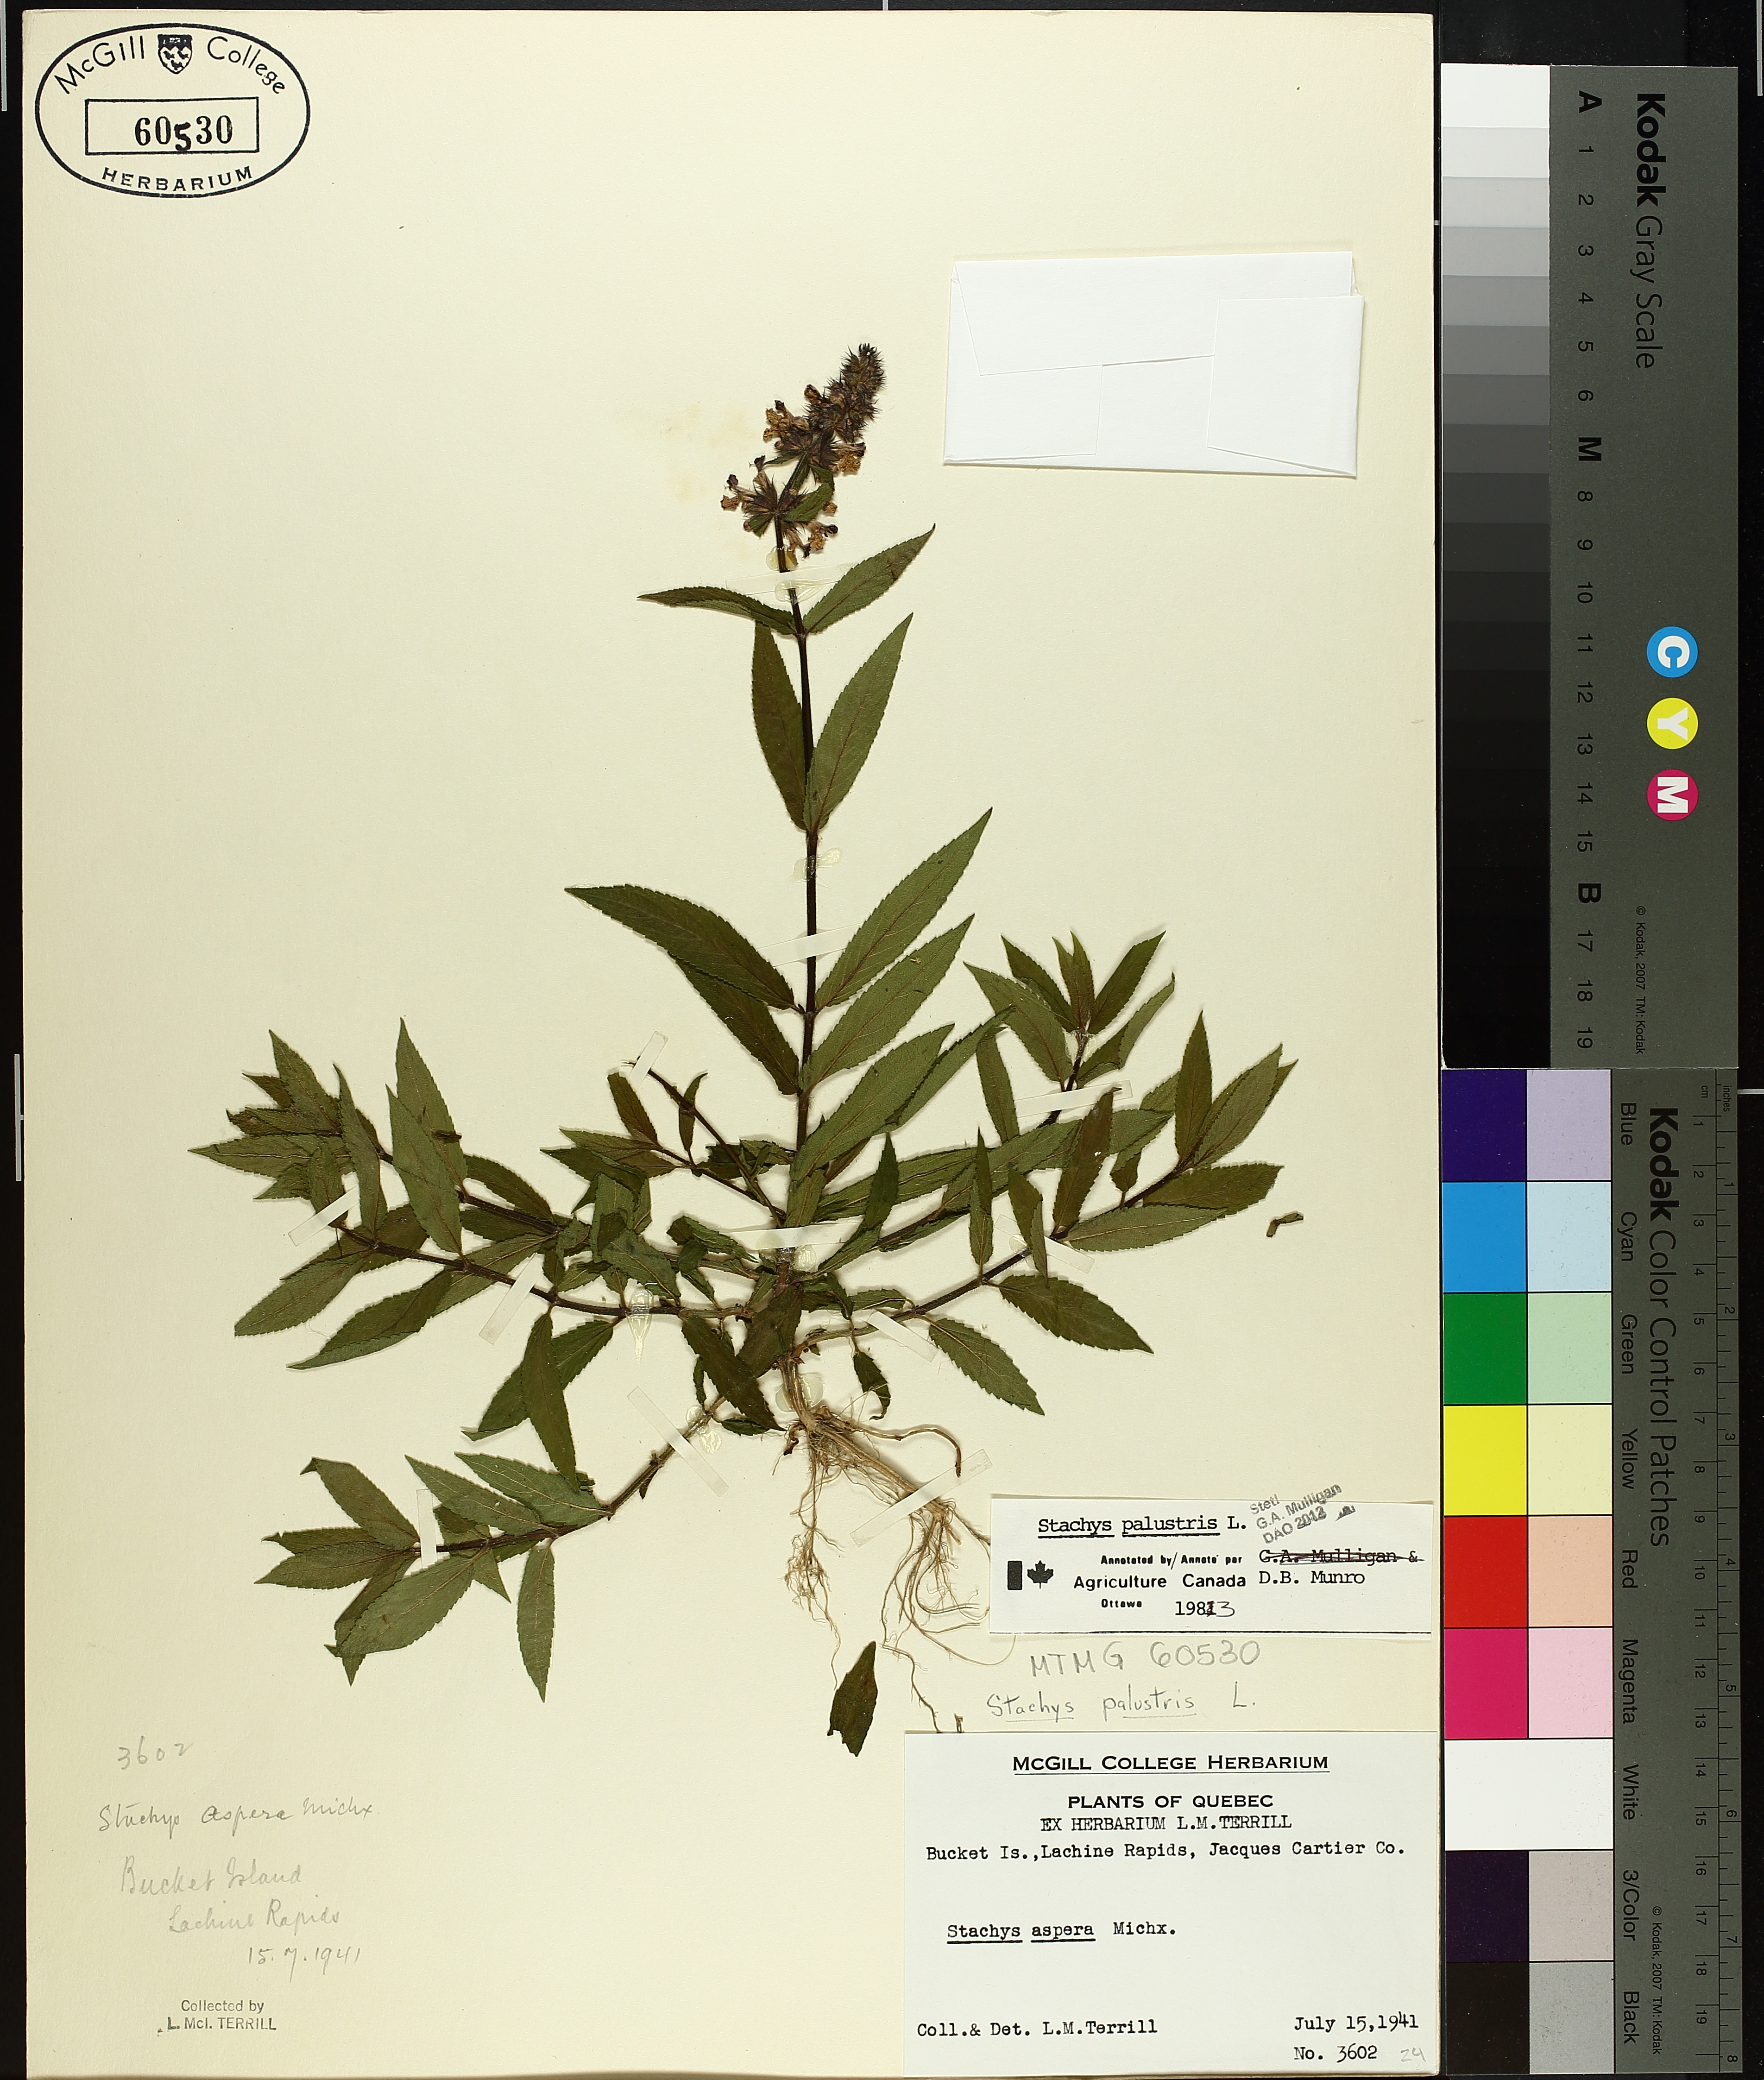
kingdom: Plantae
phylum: Tracheophyta
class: Magnoliopsida
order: Lamiales
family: Lamiaceae
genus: Stachys
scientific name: Stachys palustris
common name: Marsh woundwort
